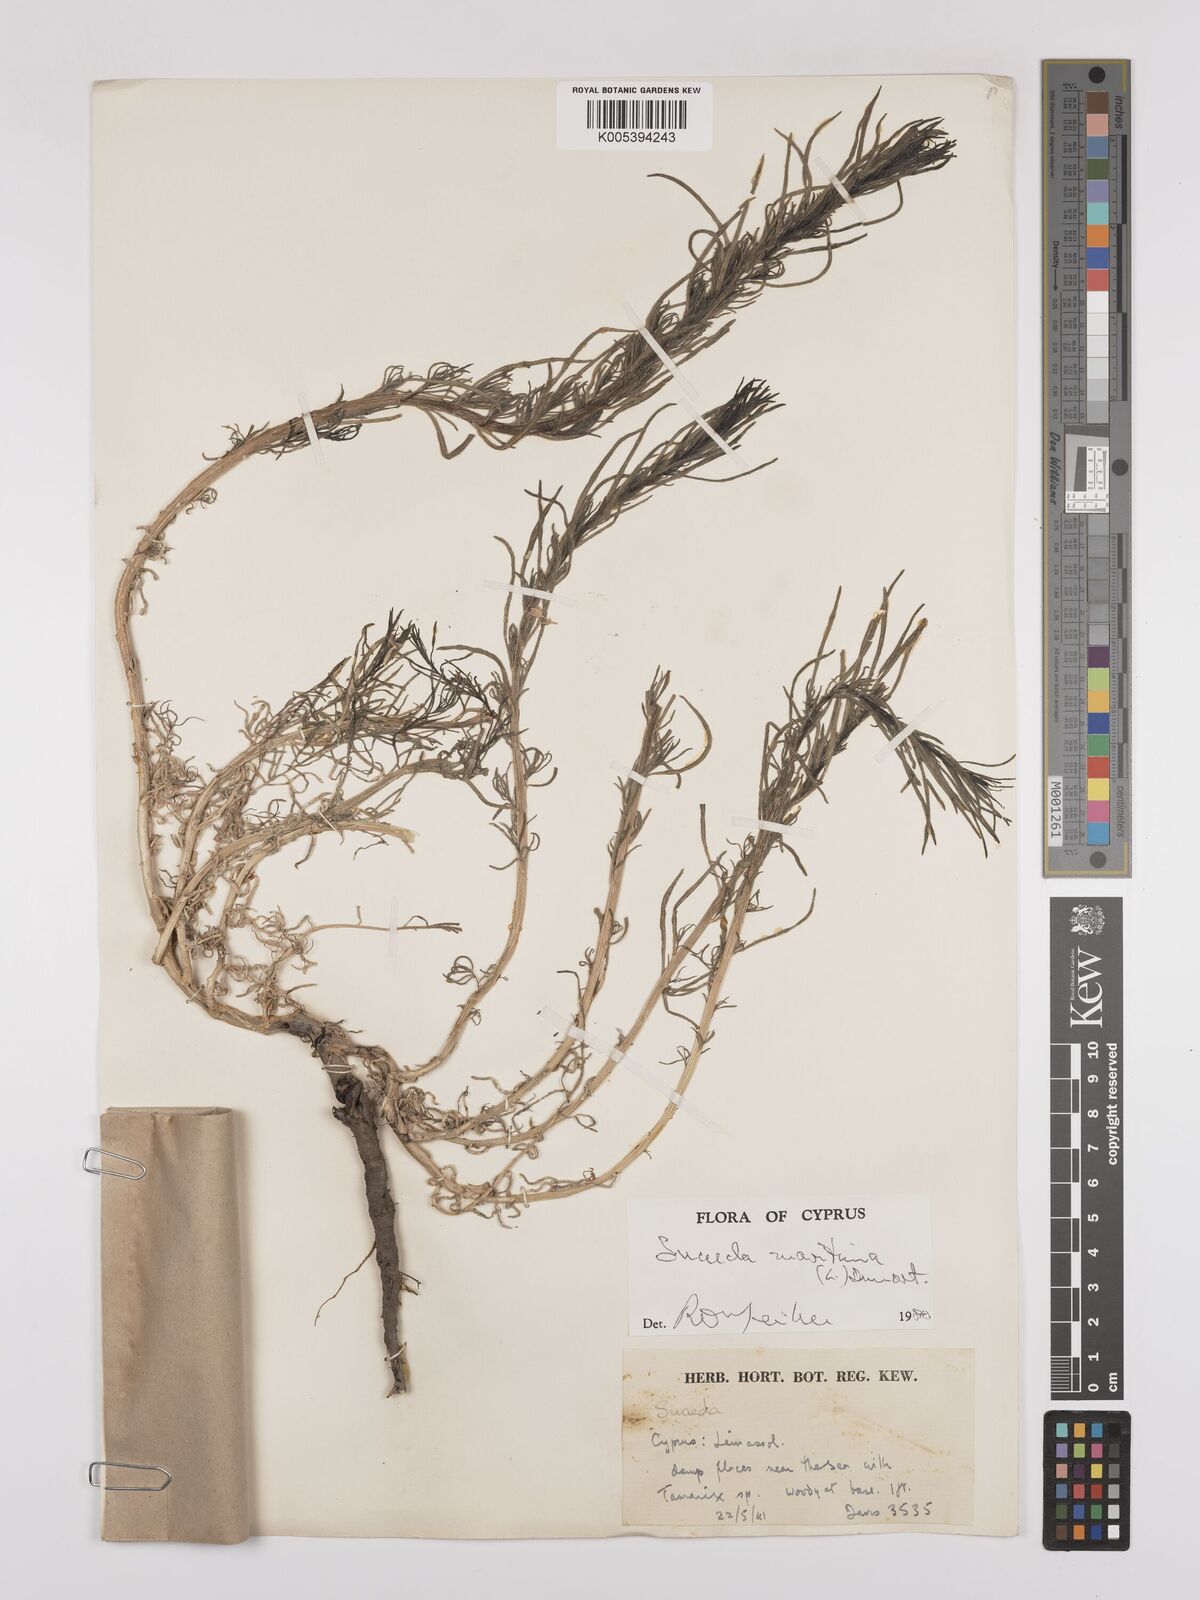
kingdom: Plantae
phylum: Tracheophyta
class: Magnoliopsida
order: Caryophyllales
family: Amaranthaceae
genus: Suaeda
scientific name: Suaeda
